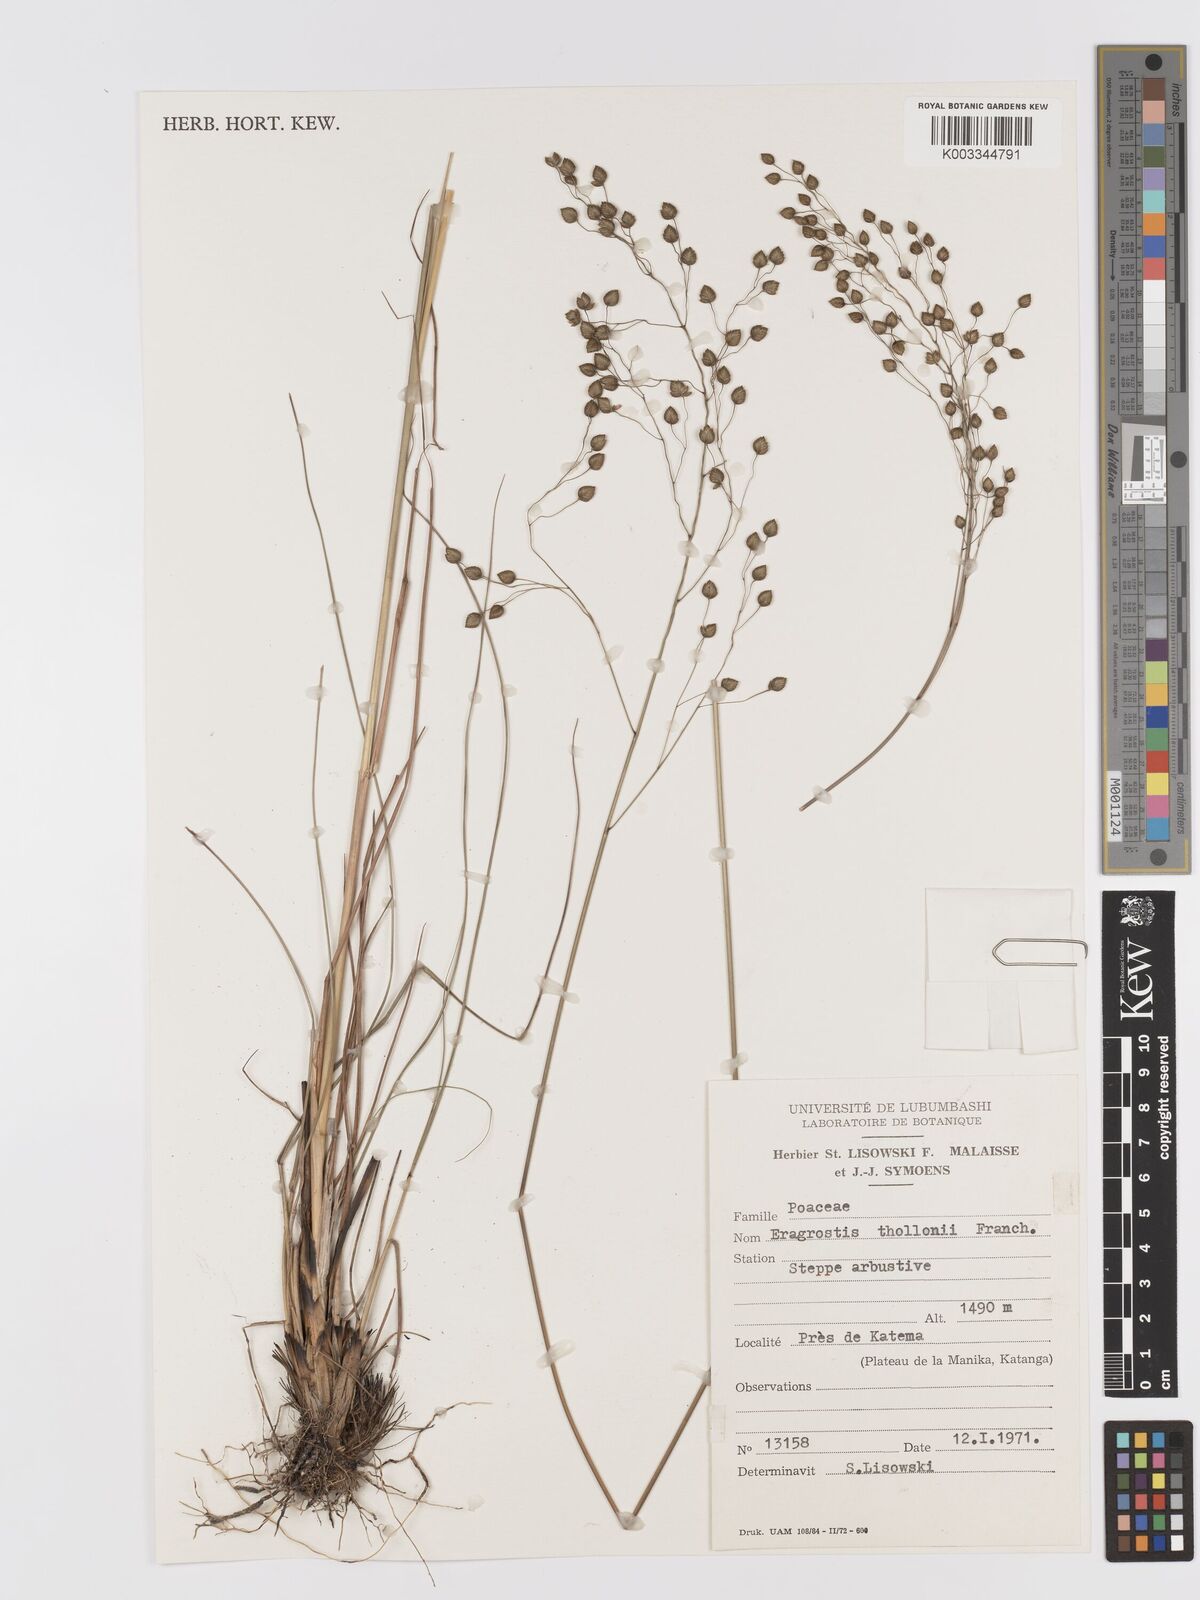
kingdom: Plantae
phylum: Tracheophyta
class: Liliopsida
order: Poales
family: Poaceae
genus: Eragrostis
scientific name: Eragrostis thollonii
